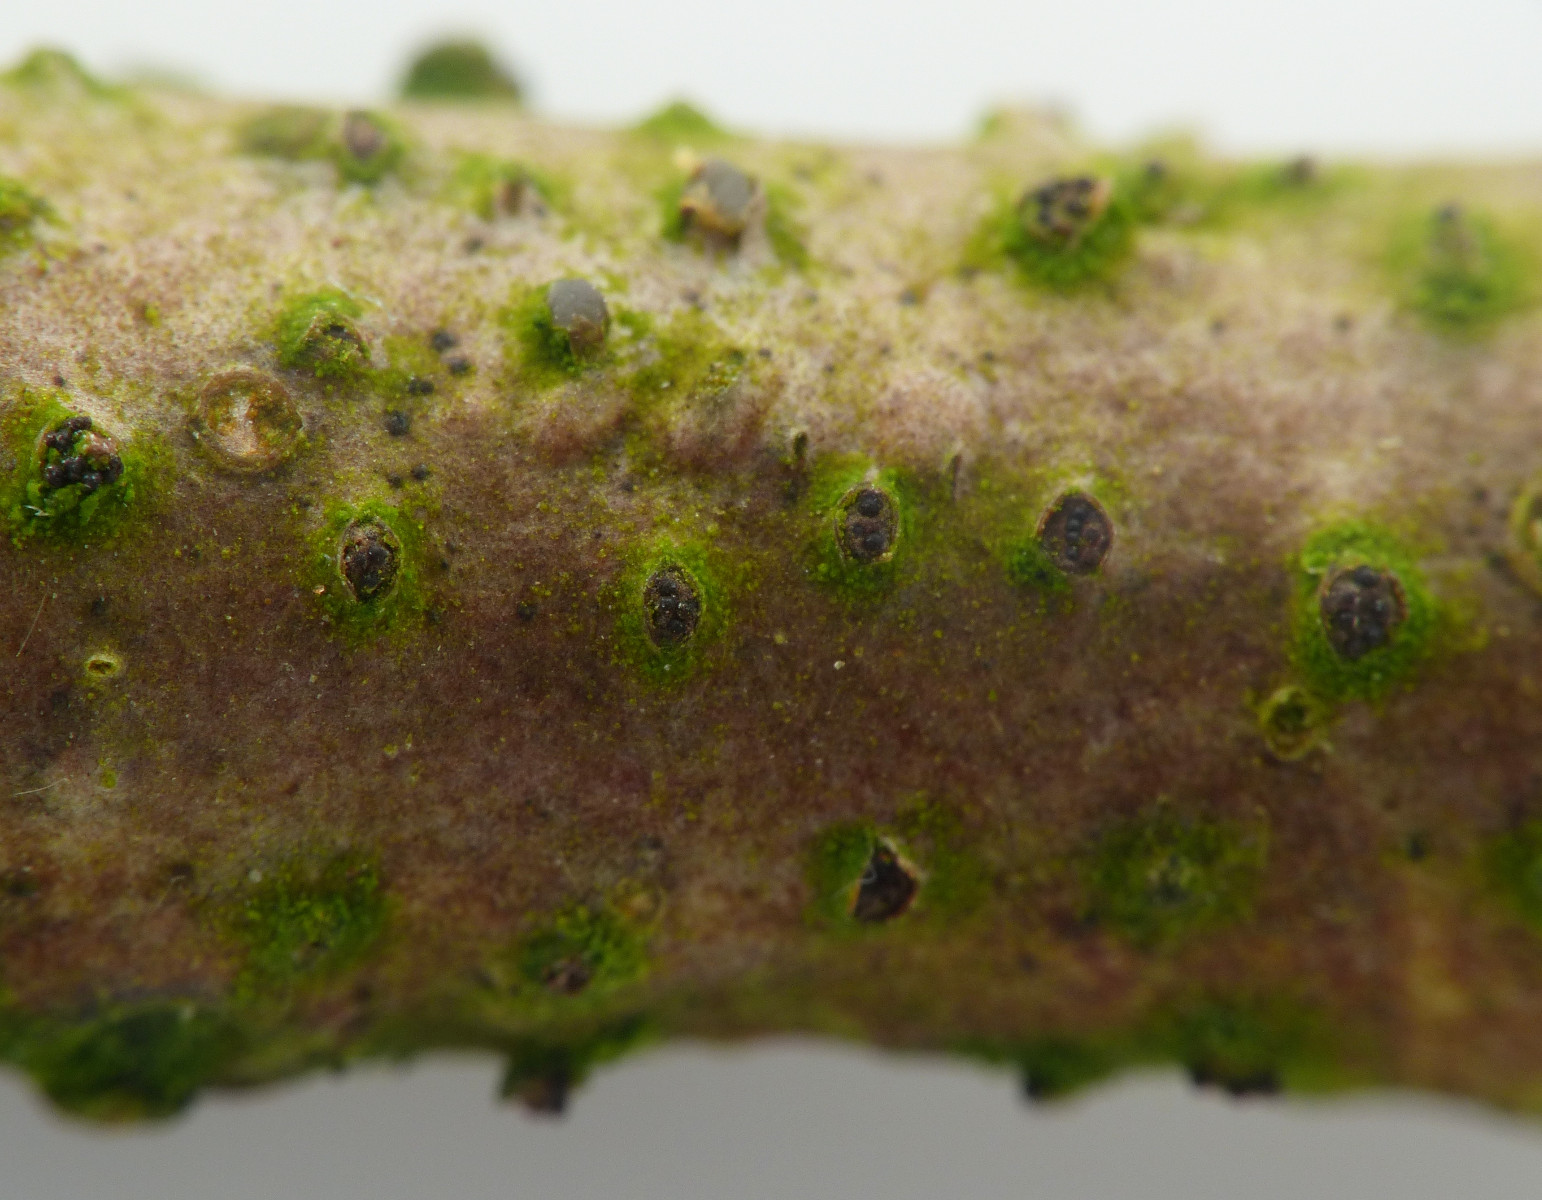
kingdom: Fungi
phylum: Ascomycota
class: Sordariomycetes
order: Diaporthales
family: Erythrogloeaceae
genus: Dendrostoma
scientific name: Dendrostoma leiphaemia
